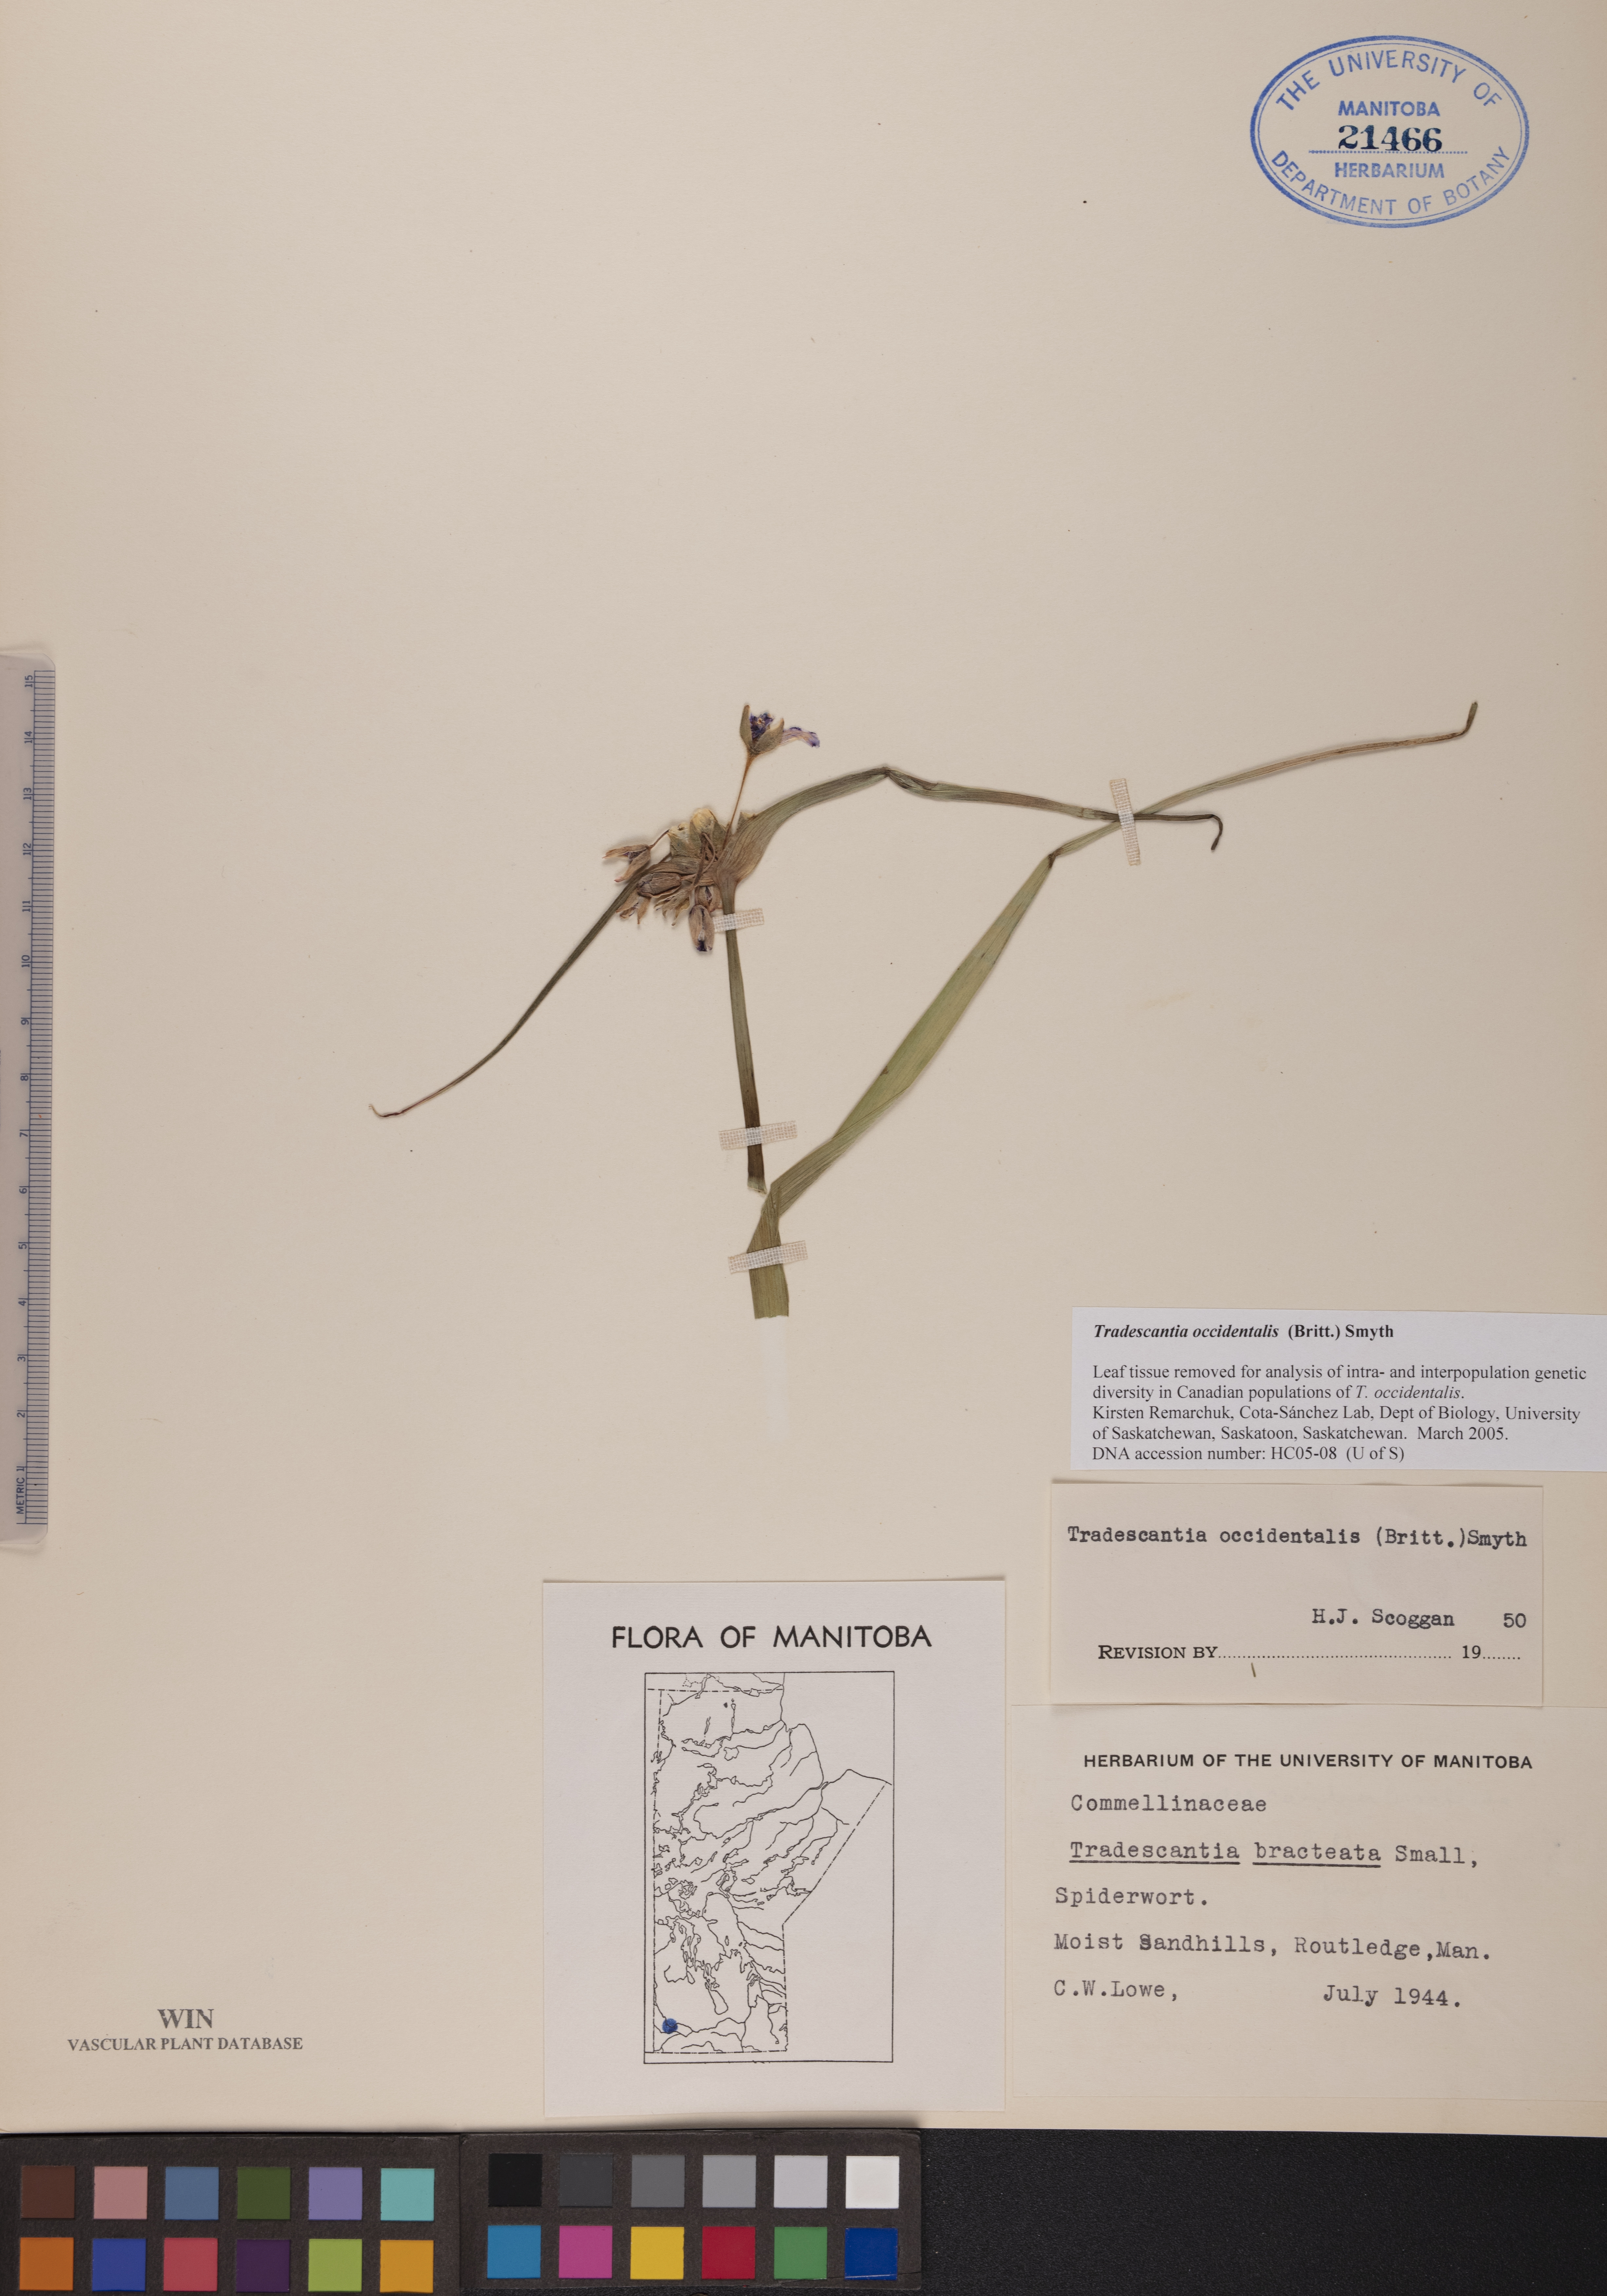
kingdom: Plantae
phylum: Tracheophyta
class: Liliopsida
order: Commelinales
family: Commelinaceae
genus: Tradescantia
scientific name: Tradescantia occidentalis
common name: Prairie spiderwort
